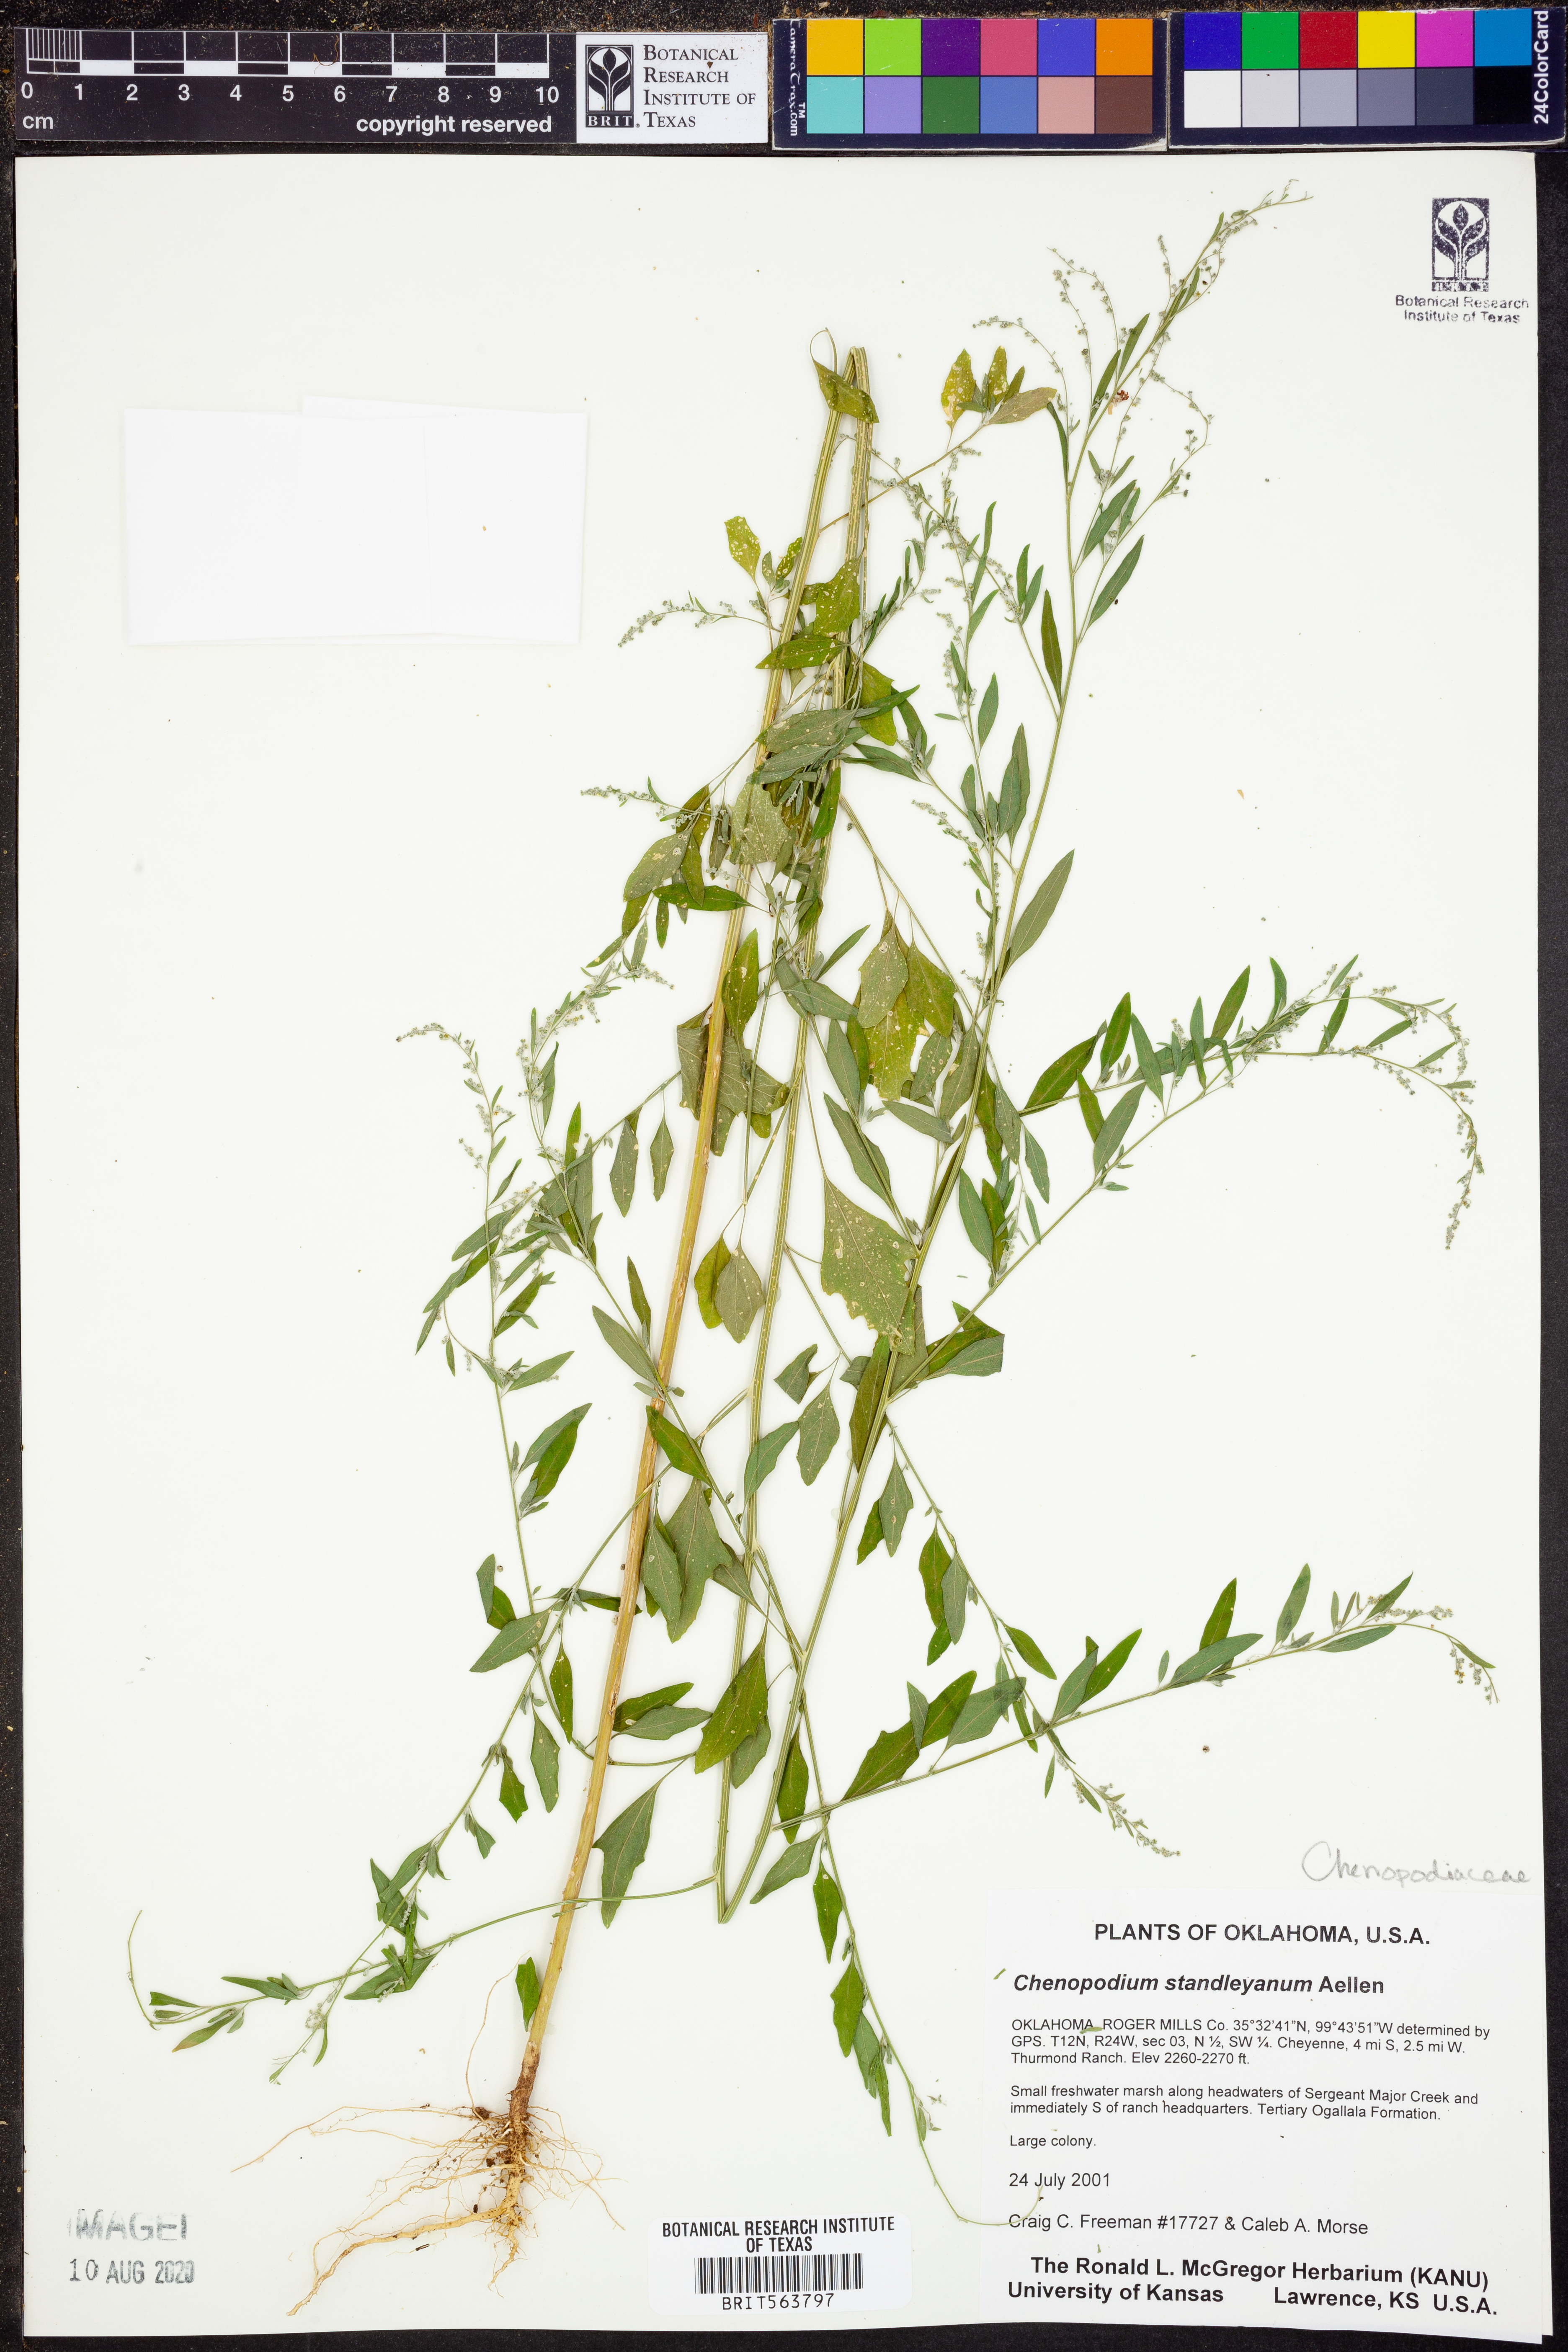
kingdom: Plantae
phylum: Tracheophyta
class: Magnoliopsida
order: Caryophyllales
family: Amaranthaceae
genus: Chenopodiastrum
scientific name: Chenopodiastrum standleyanum
